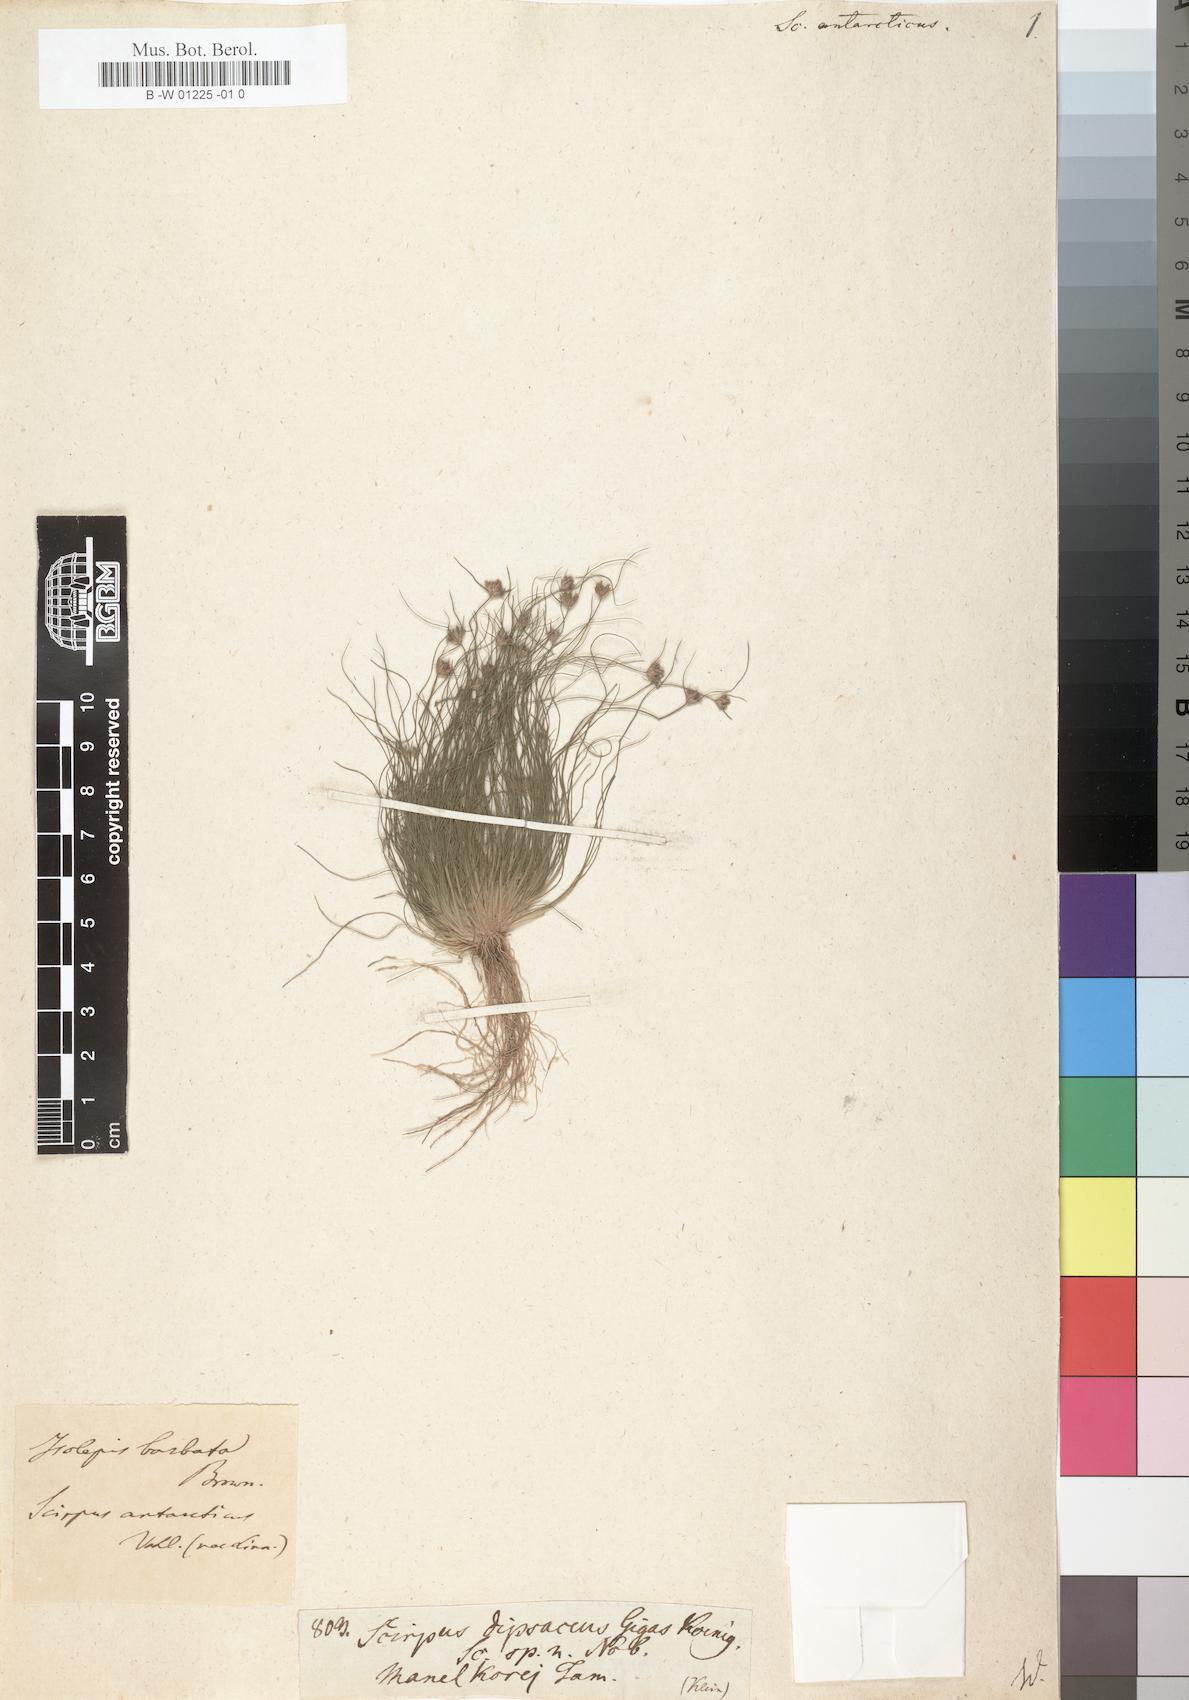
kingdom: Plantae
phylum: Tracheophyta
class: Liliopsida
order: Poales
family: Cyperaceae
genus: Scirpus
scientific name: Scirpus antarcticus
